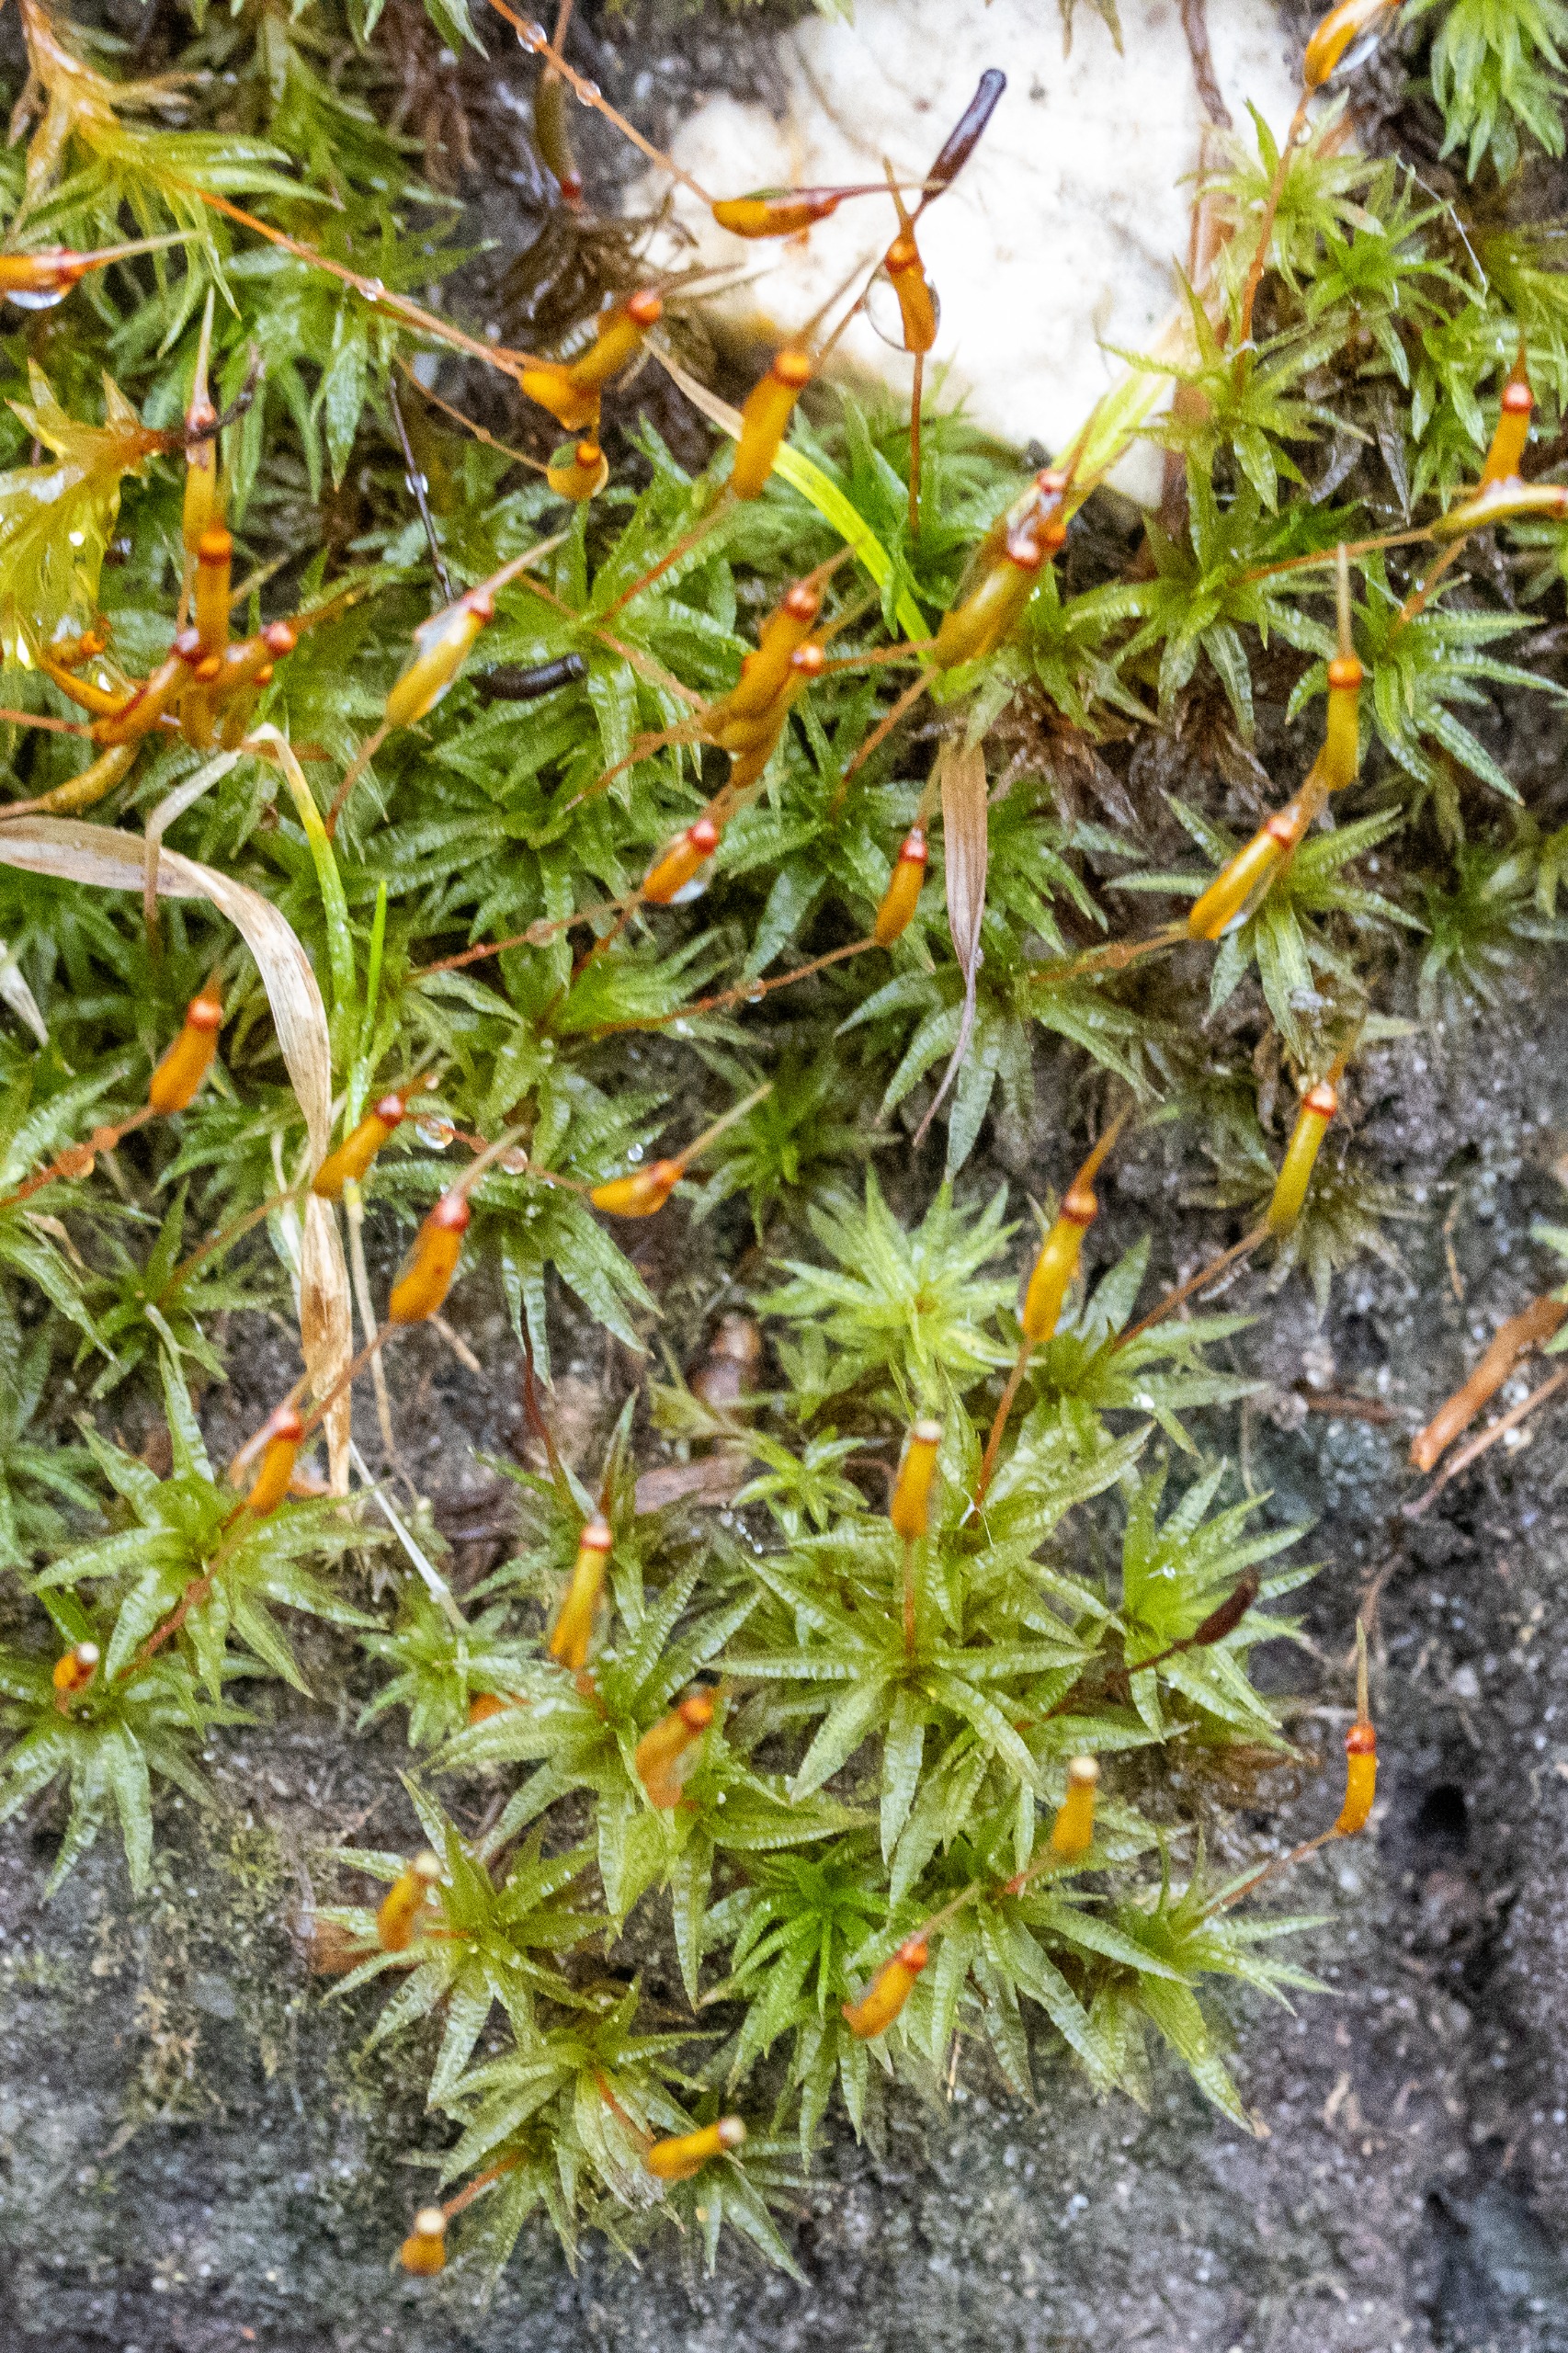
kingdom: Plantae
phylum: Bryophyta
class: Polytrichopsida
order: Polytrichales
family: Polytrichaceae
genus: Atrichum
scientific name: Atrichum undulatum
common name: Bølget katrinemos
